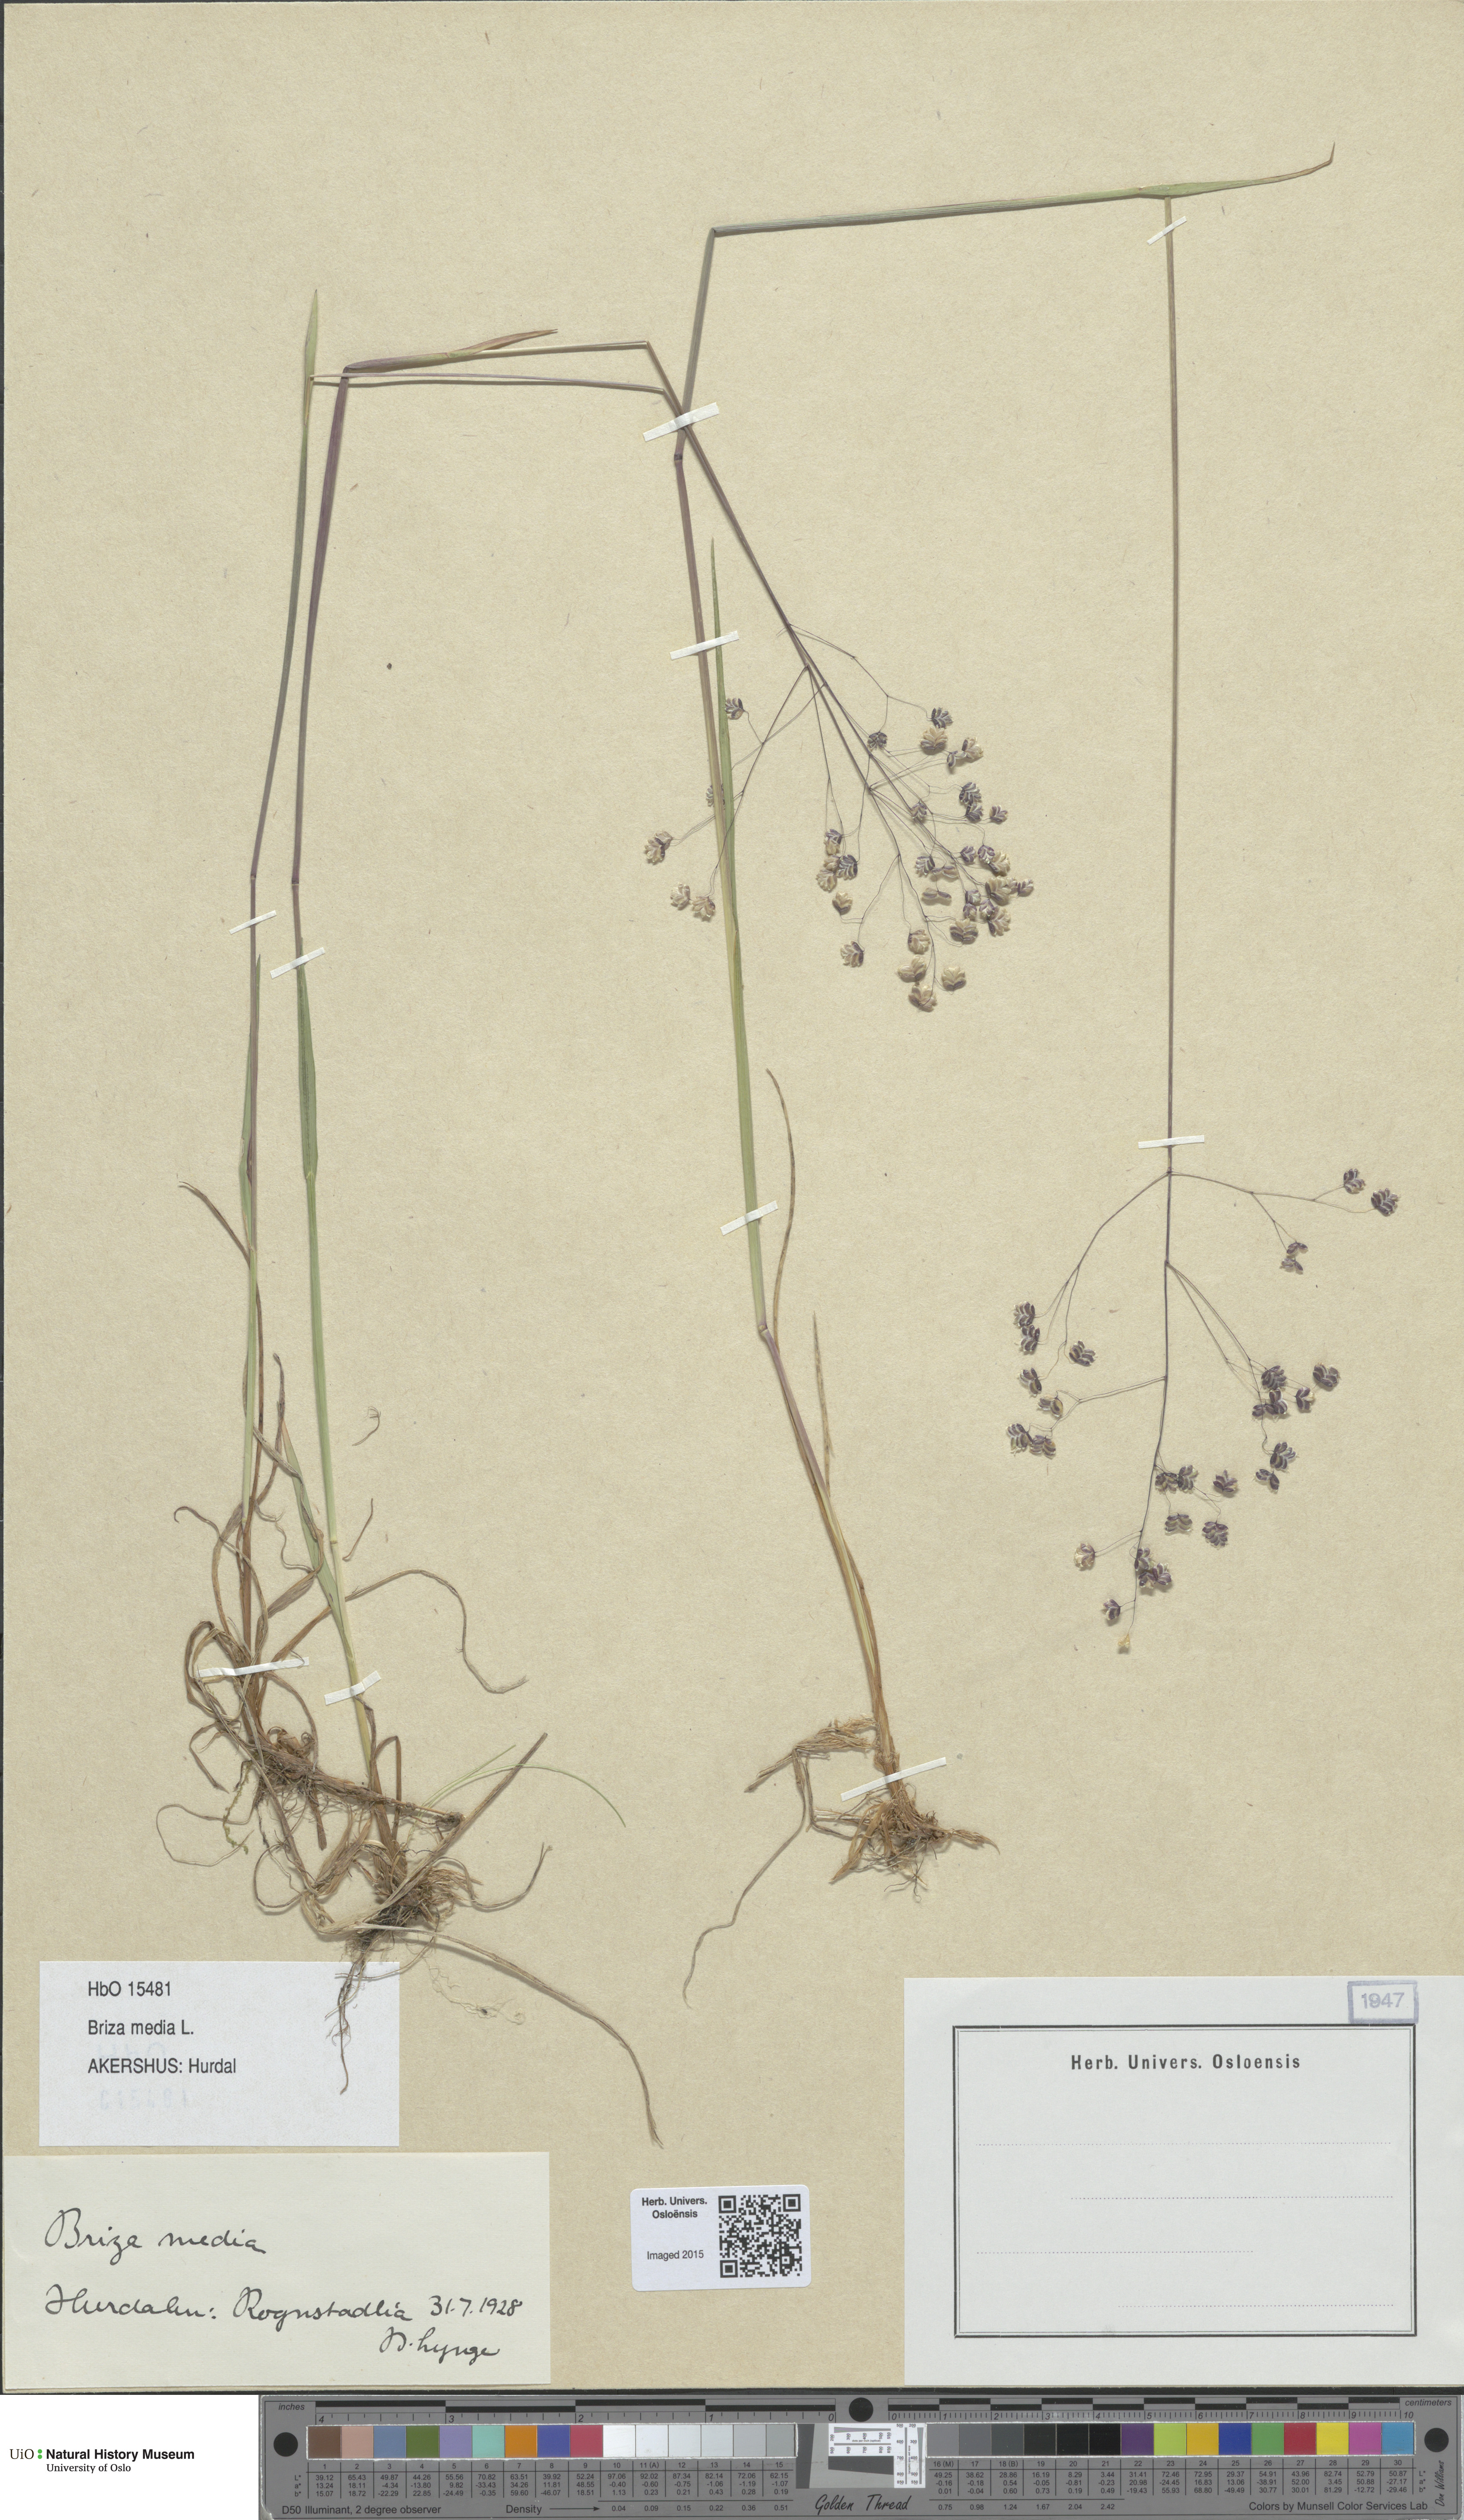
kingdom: Plantae
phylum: Tracheophyta
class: Liliopsida
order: Poales
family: Poaceae
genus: Briza
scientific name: Briza media
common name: Quaking grass
